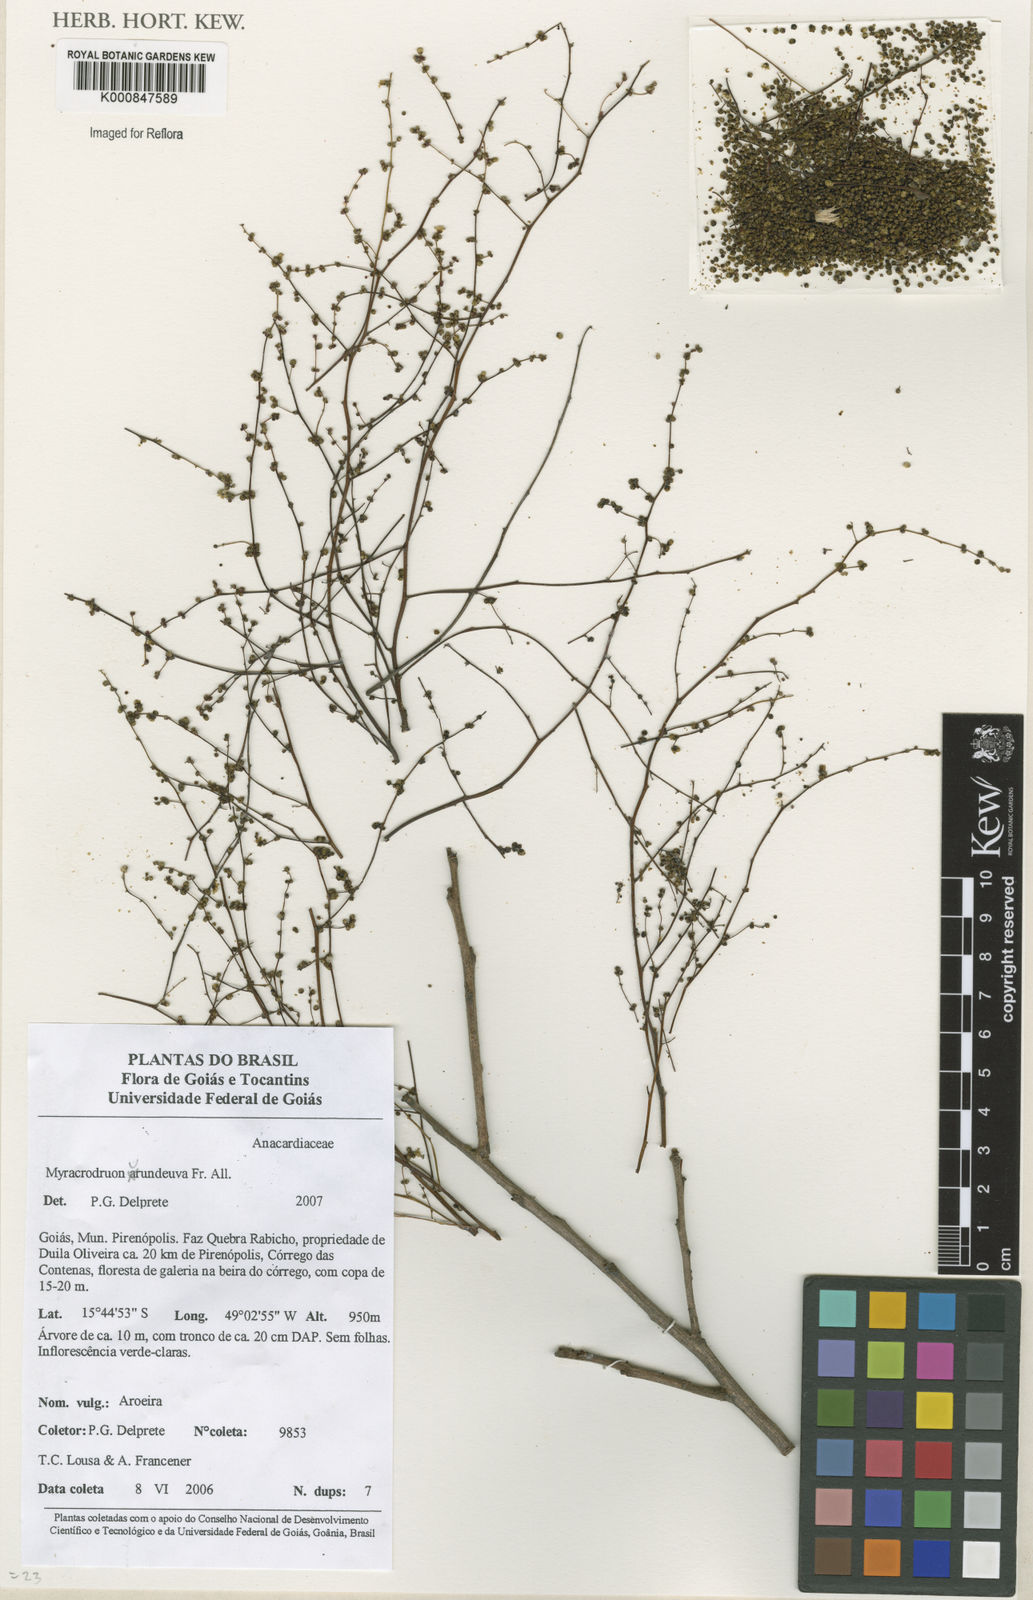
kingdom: Plantae
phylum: Tracheophyta
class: Magnoliopsida
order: Sapindales
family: Anacardiaceae
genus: Astronium
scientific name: Astronium
